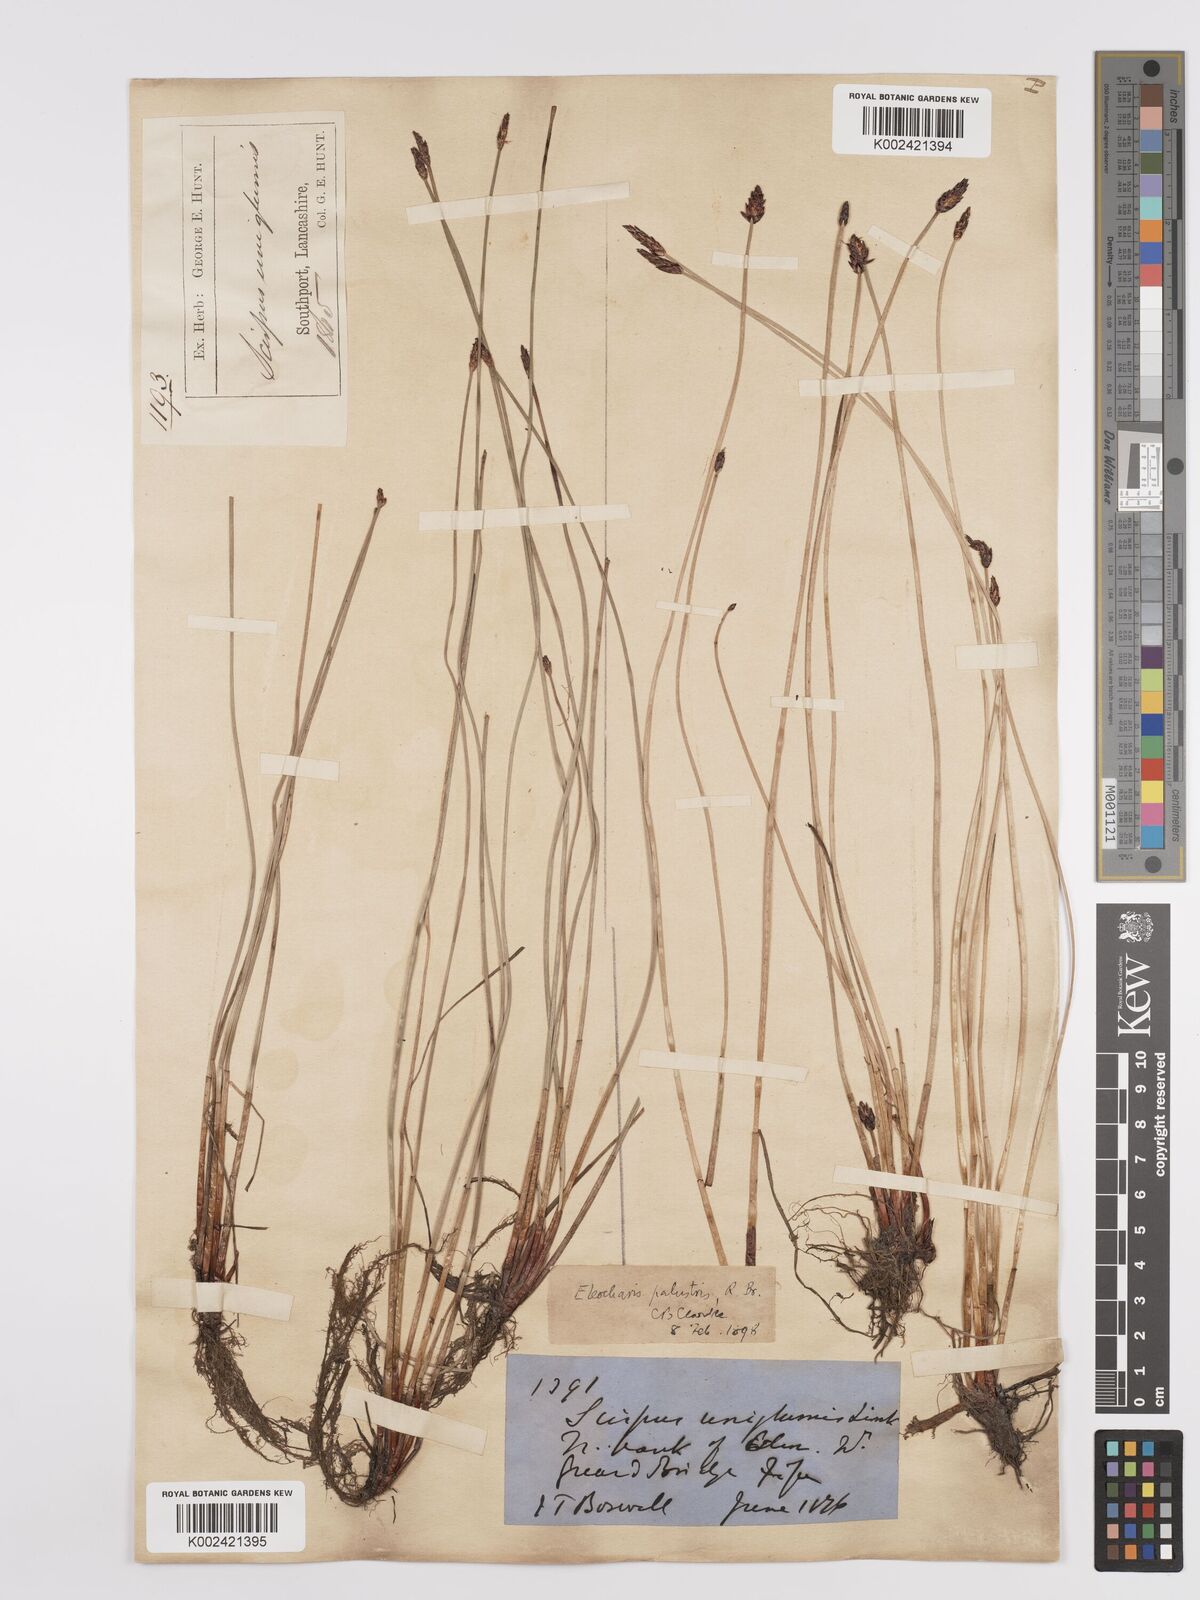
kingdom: Plantae
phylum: Tracheophyta
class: Liliopsida
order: Poales
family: Cyperaceae
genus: Eleocharis
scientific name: Eleocharis uniglumis
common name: Slender spike-rush
